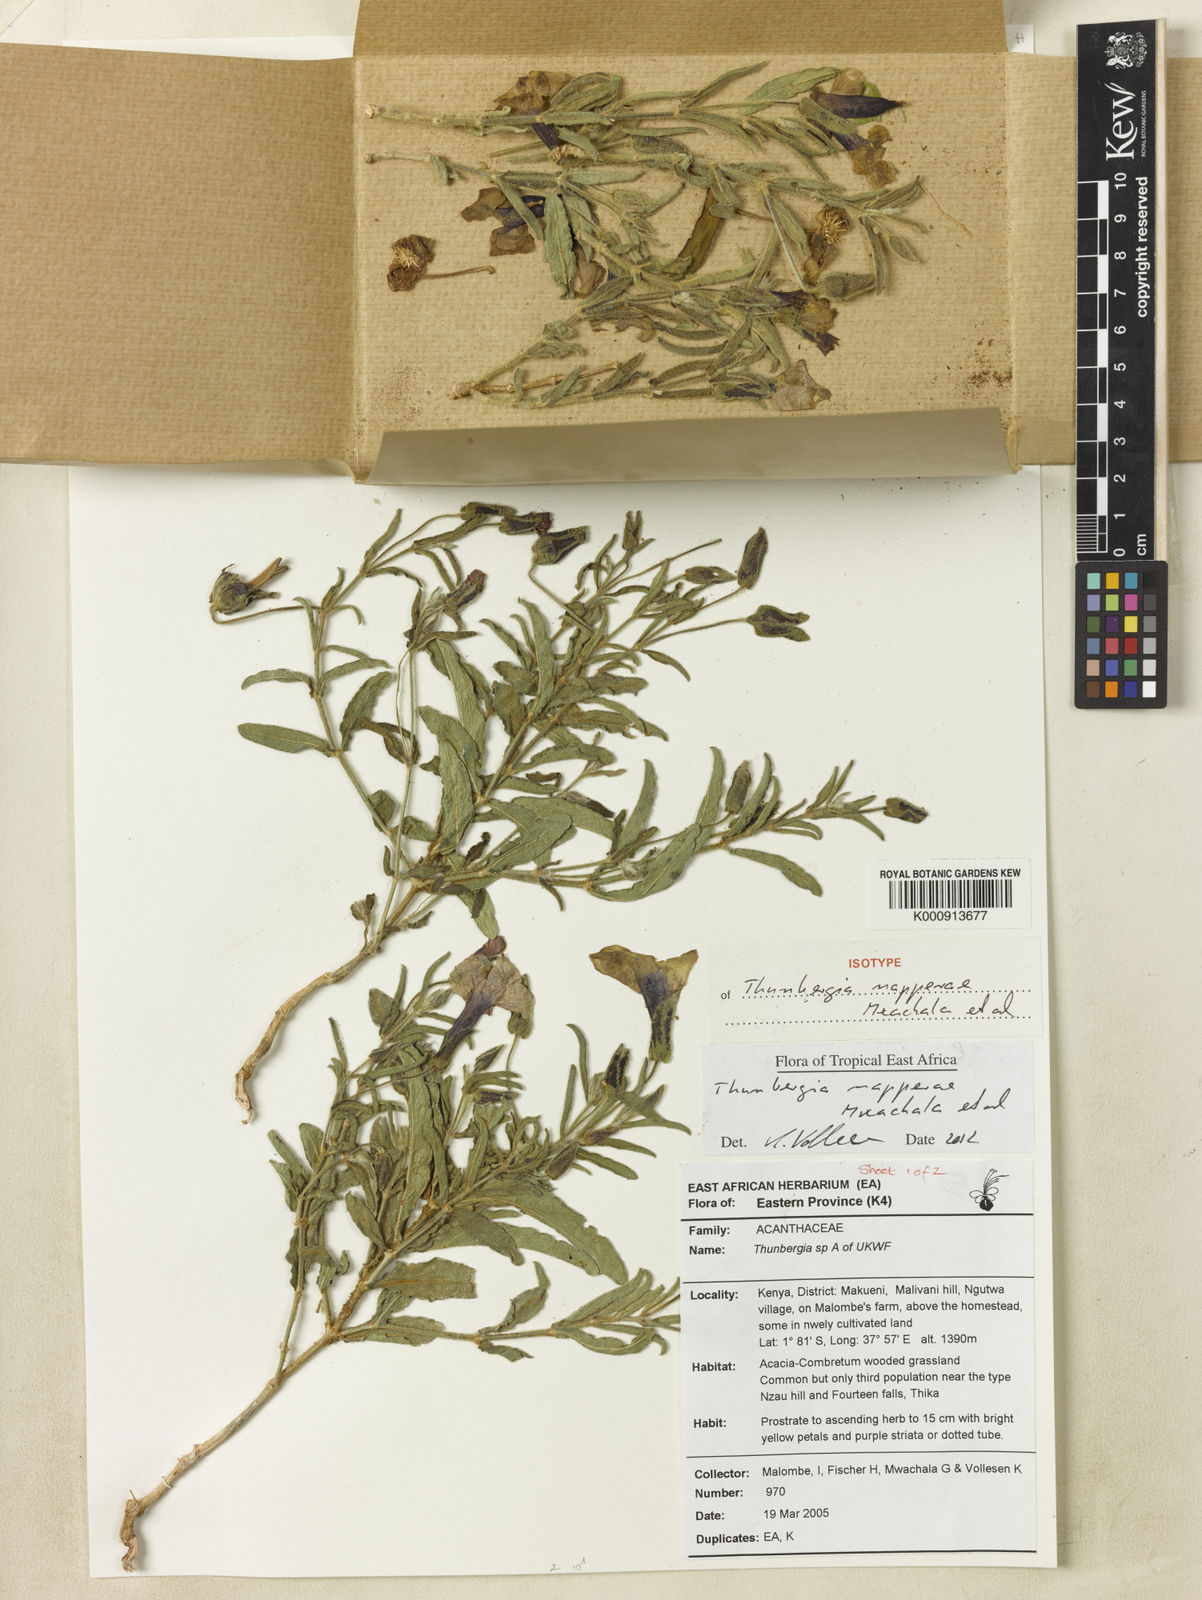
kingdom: Plantae
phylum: Tracheophyta
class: Magnoliopsida
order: Lamiales
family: Acanthaceae
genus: Thunbergia
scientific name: Thunbergia napperae
